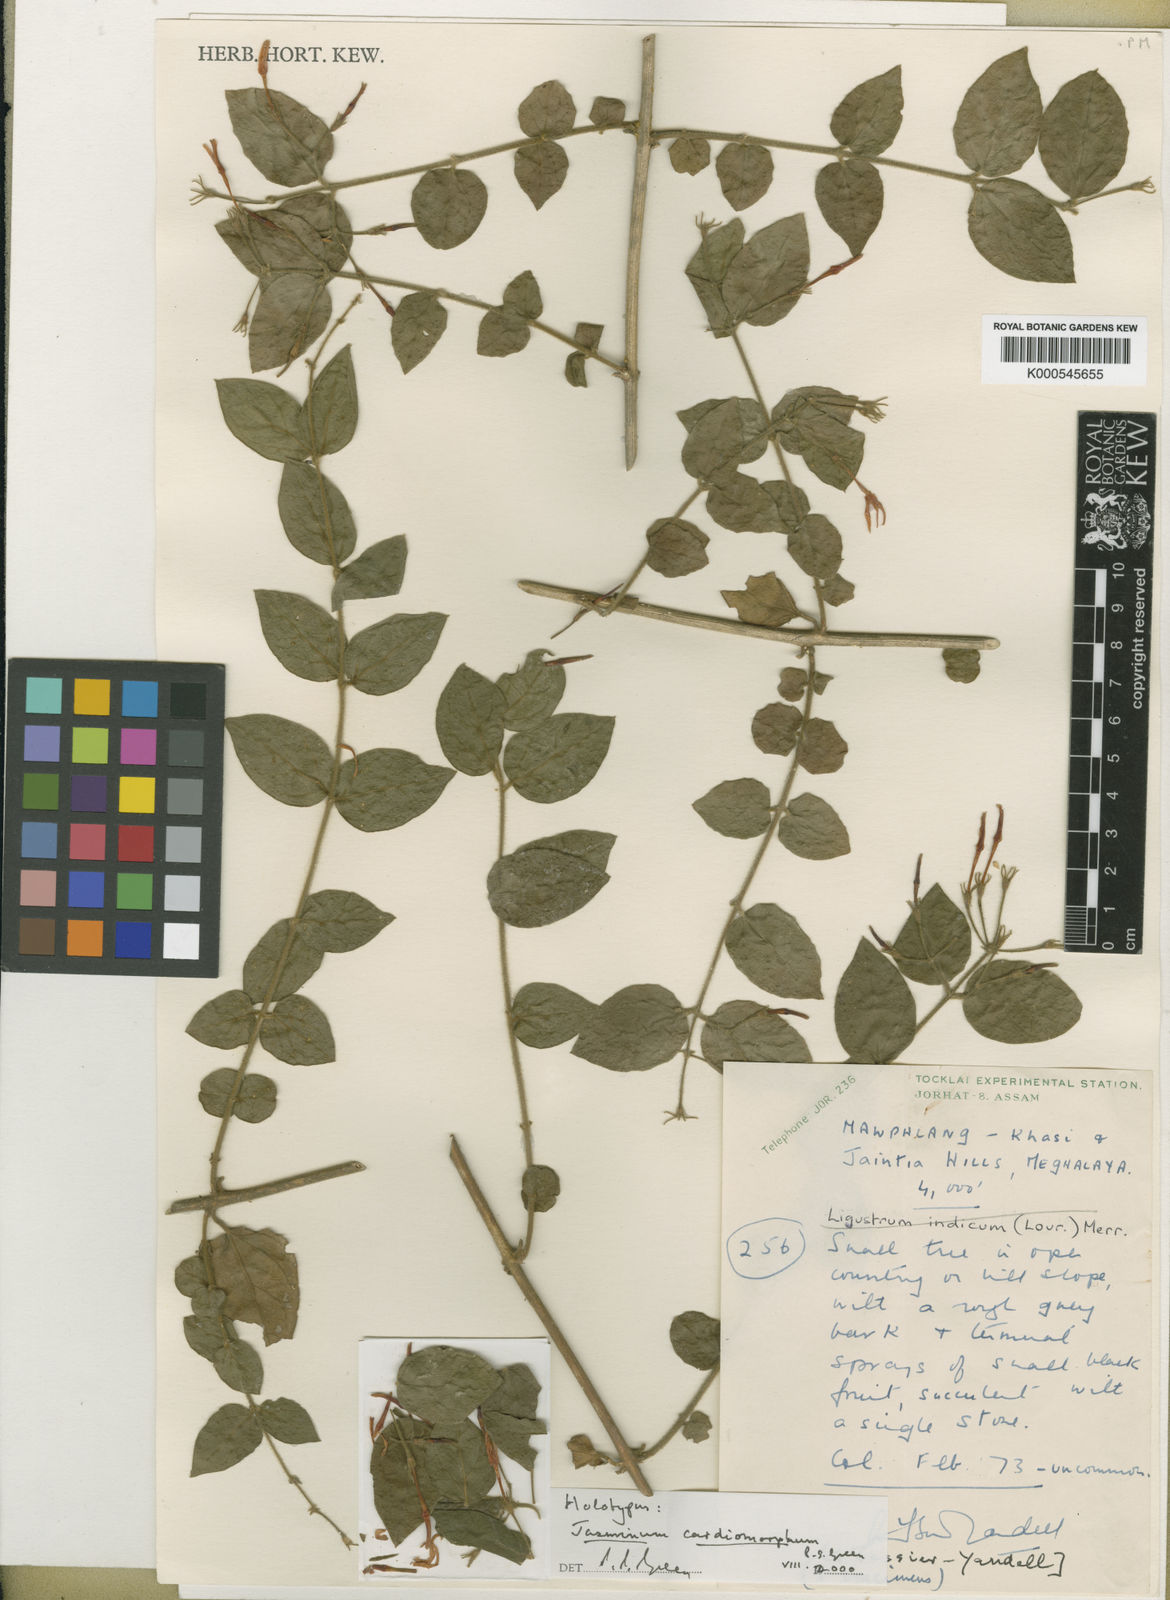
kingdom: Plantae
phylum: Tracheophyta
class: Magnoliopsida
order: Lamiales
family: Oleaceae
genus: Jasminum
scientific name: Jasminum cardiomorphum
